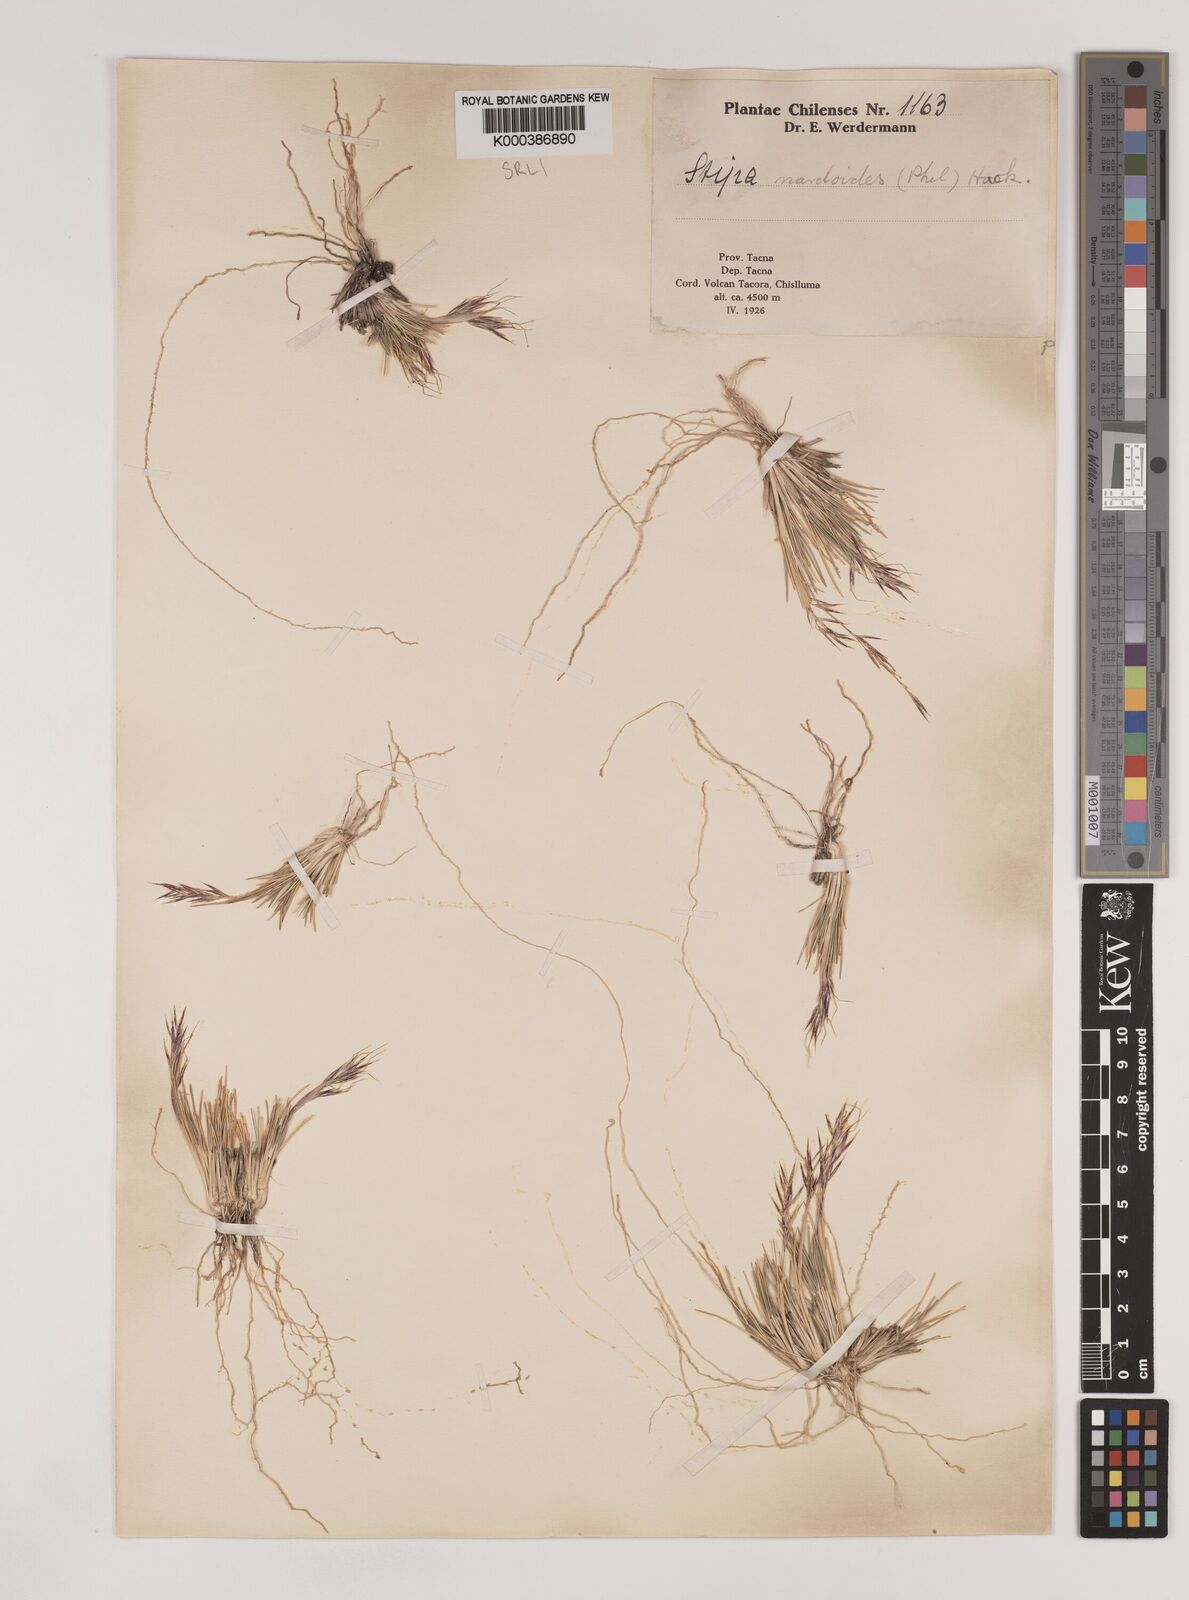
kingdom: Plantae
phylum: Tracheophyta
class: Liliopsida
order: Poales
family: Poaceae
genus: Nassella
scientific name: Nassella nardoides
